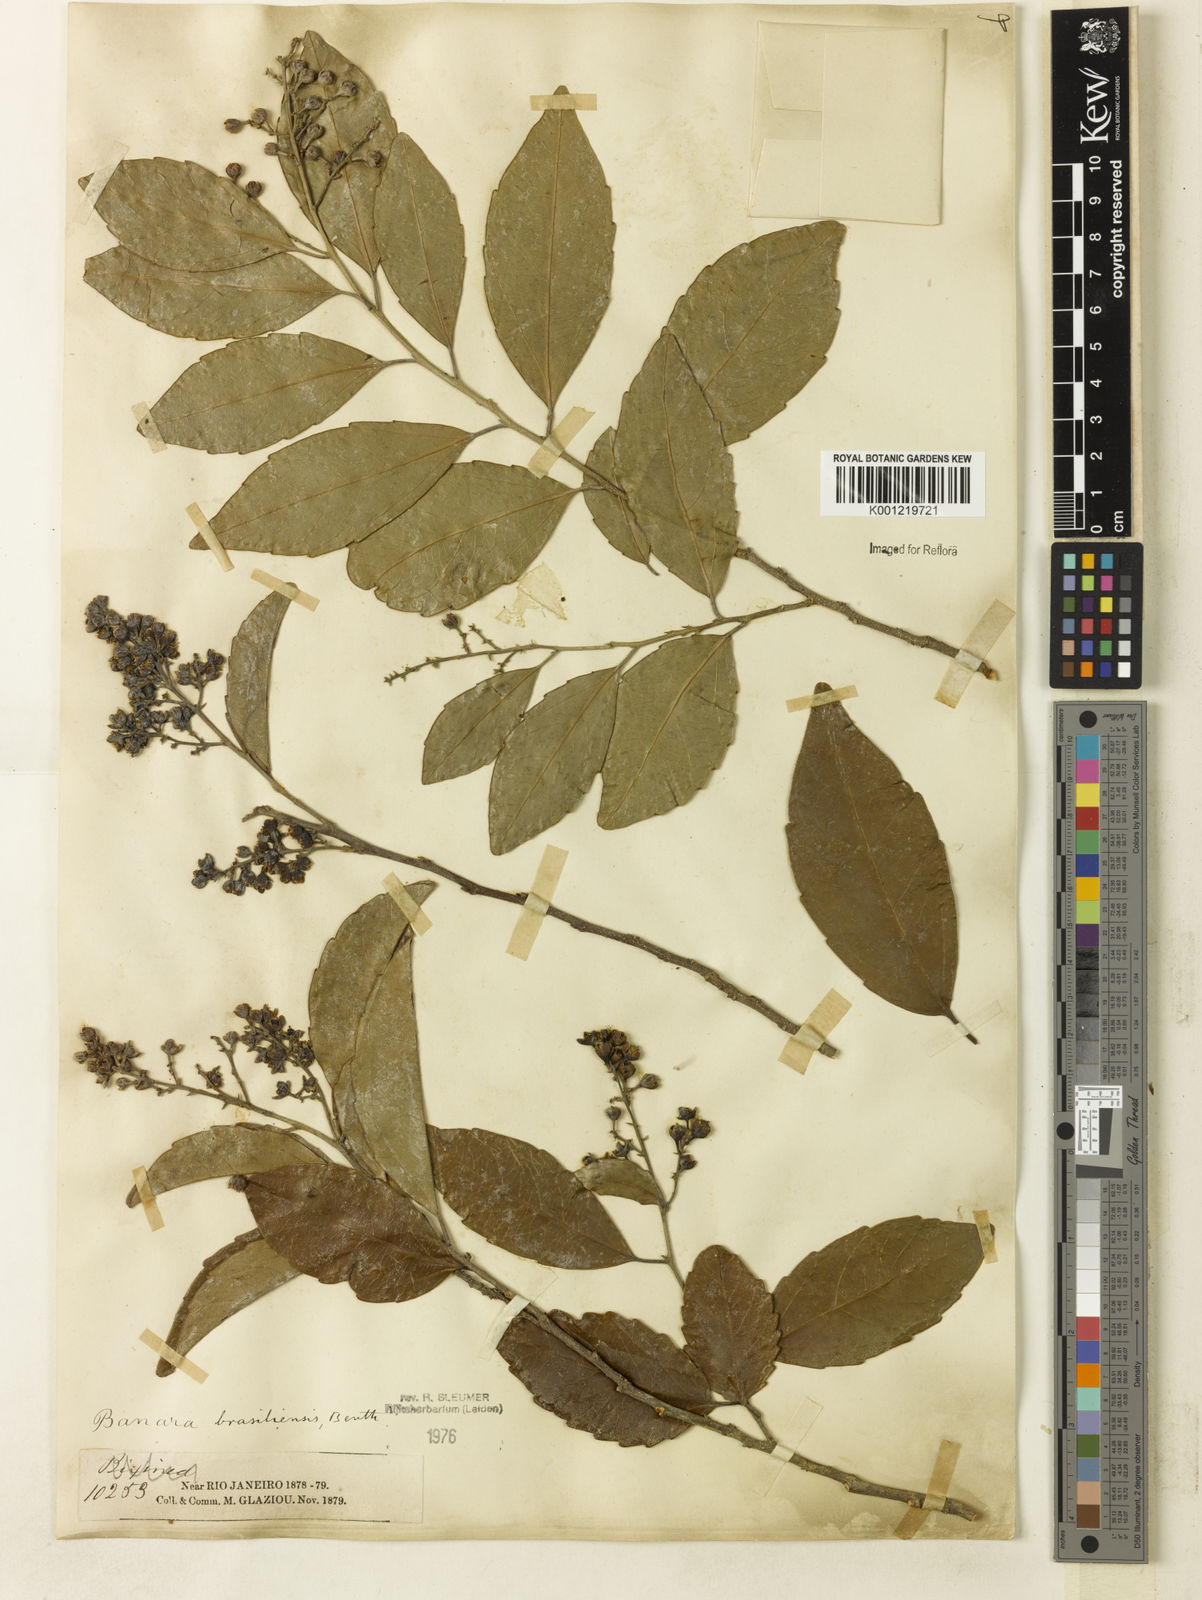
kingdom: Plantae
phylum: Tracheophyta
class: Magnoliopsida
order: Malpighiales
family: Salicaceae
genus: Banara
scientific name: Banara brasiliensis
